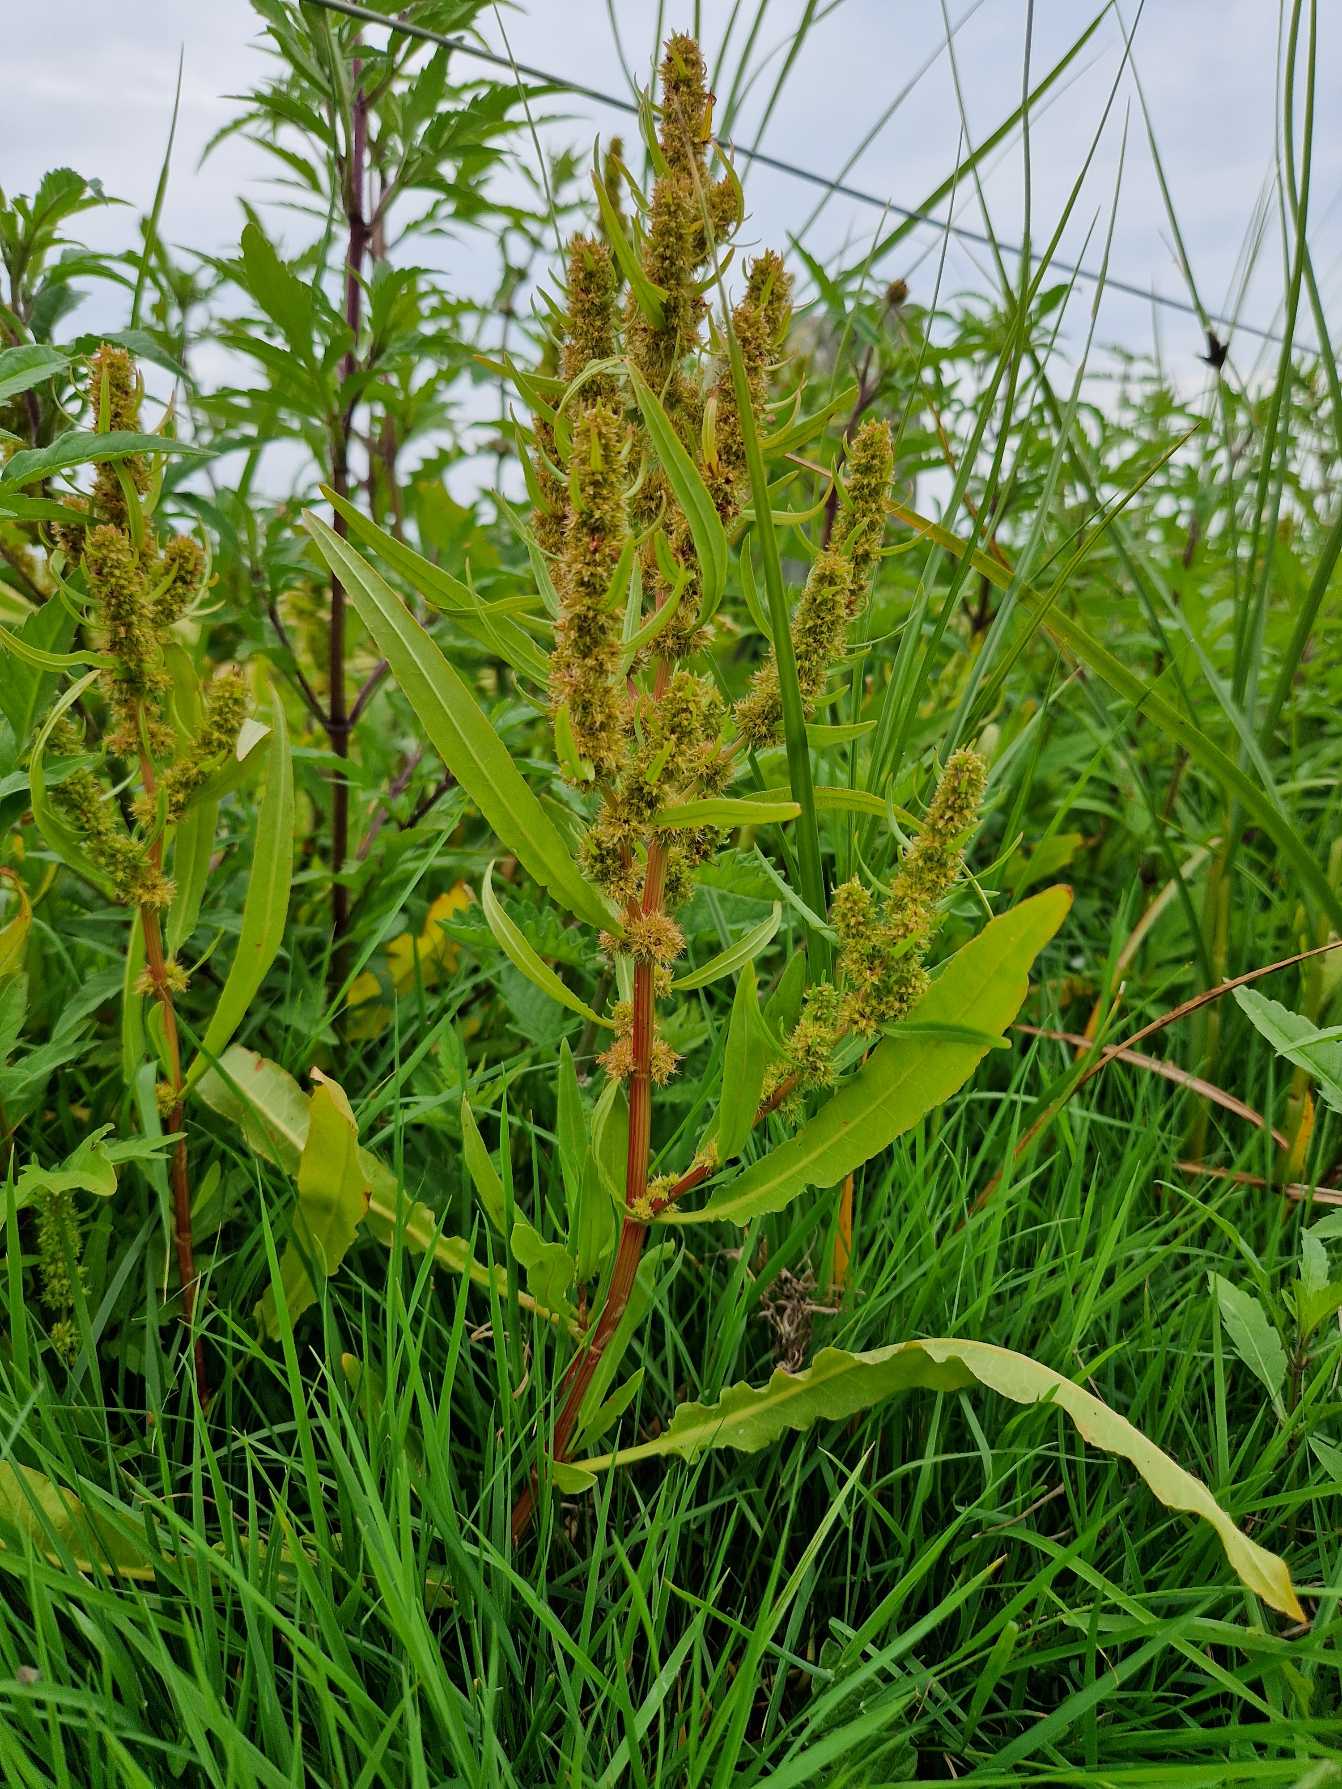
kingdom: Plantae
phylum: Tracheophyta
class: Magnoliopsida
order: Caryophyllales
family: Polygonaceae
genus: Rumex
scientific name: Rumex maritimus
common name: Strand-skræppe
